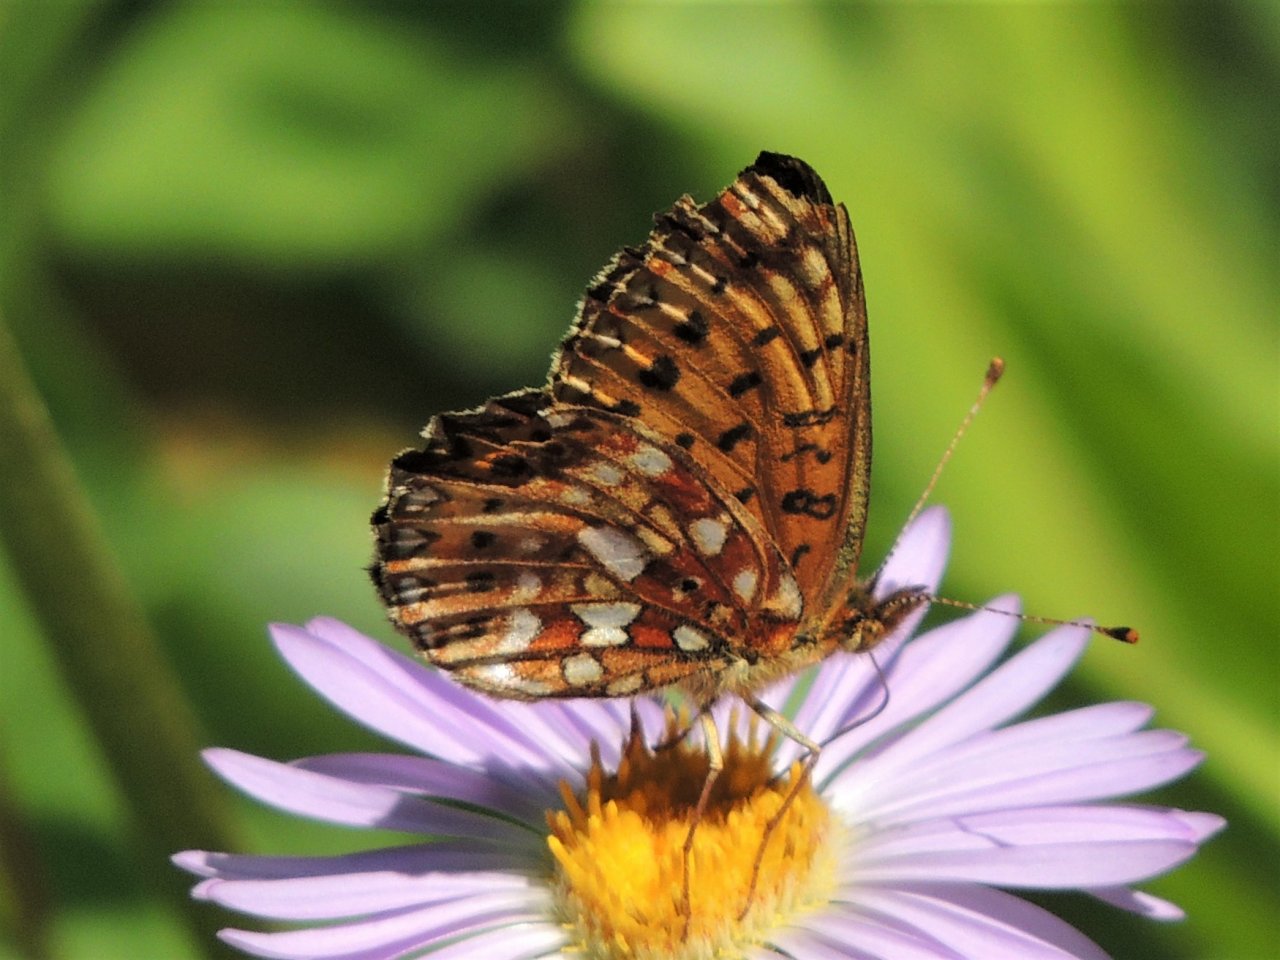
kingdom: Animalia
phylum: Arthropoda
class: Insecta
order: Lepidoptera
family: Nymphalidae
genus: Boloria
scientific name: Boloria selene
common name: Silver-bordered Fritillary
